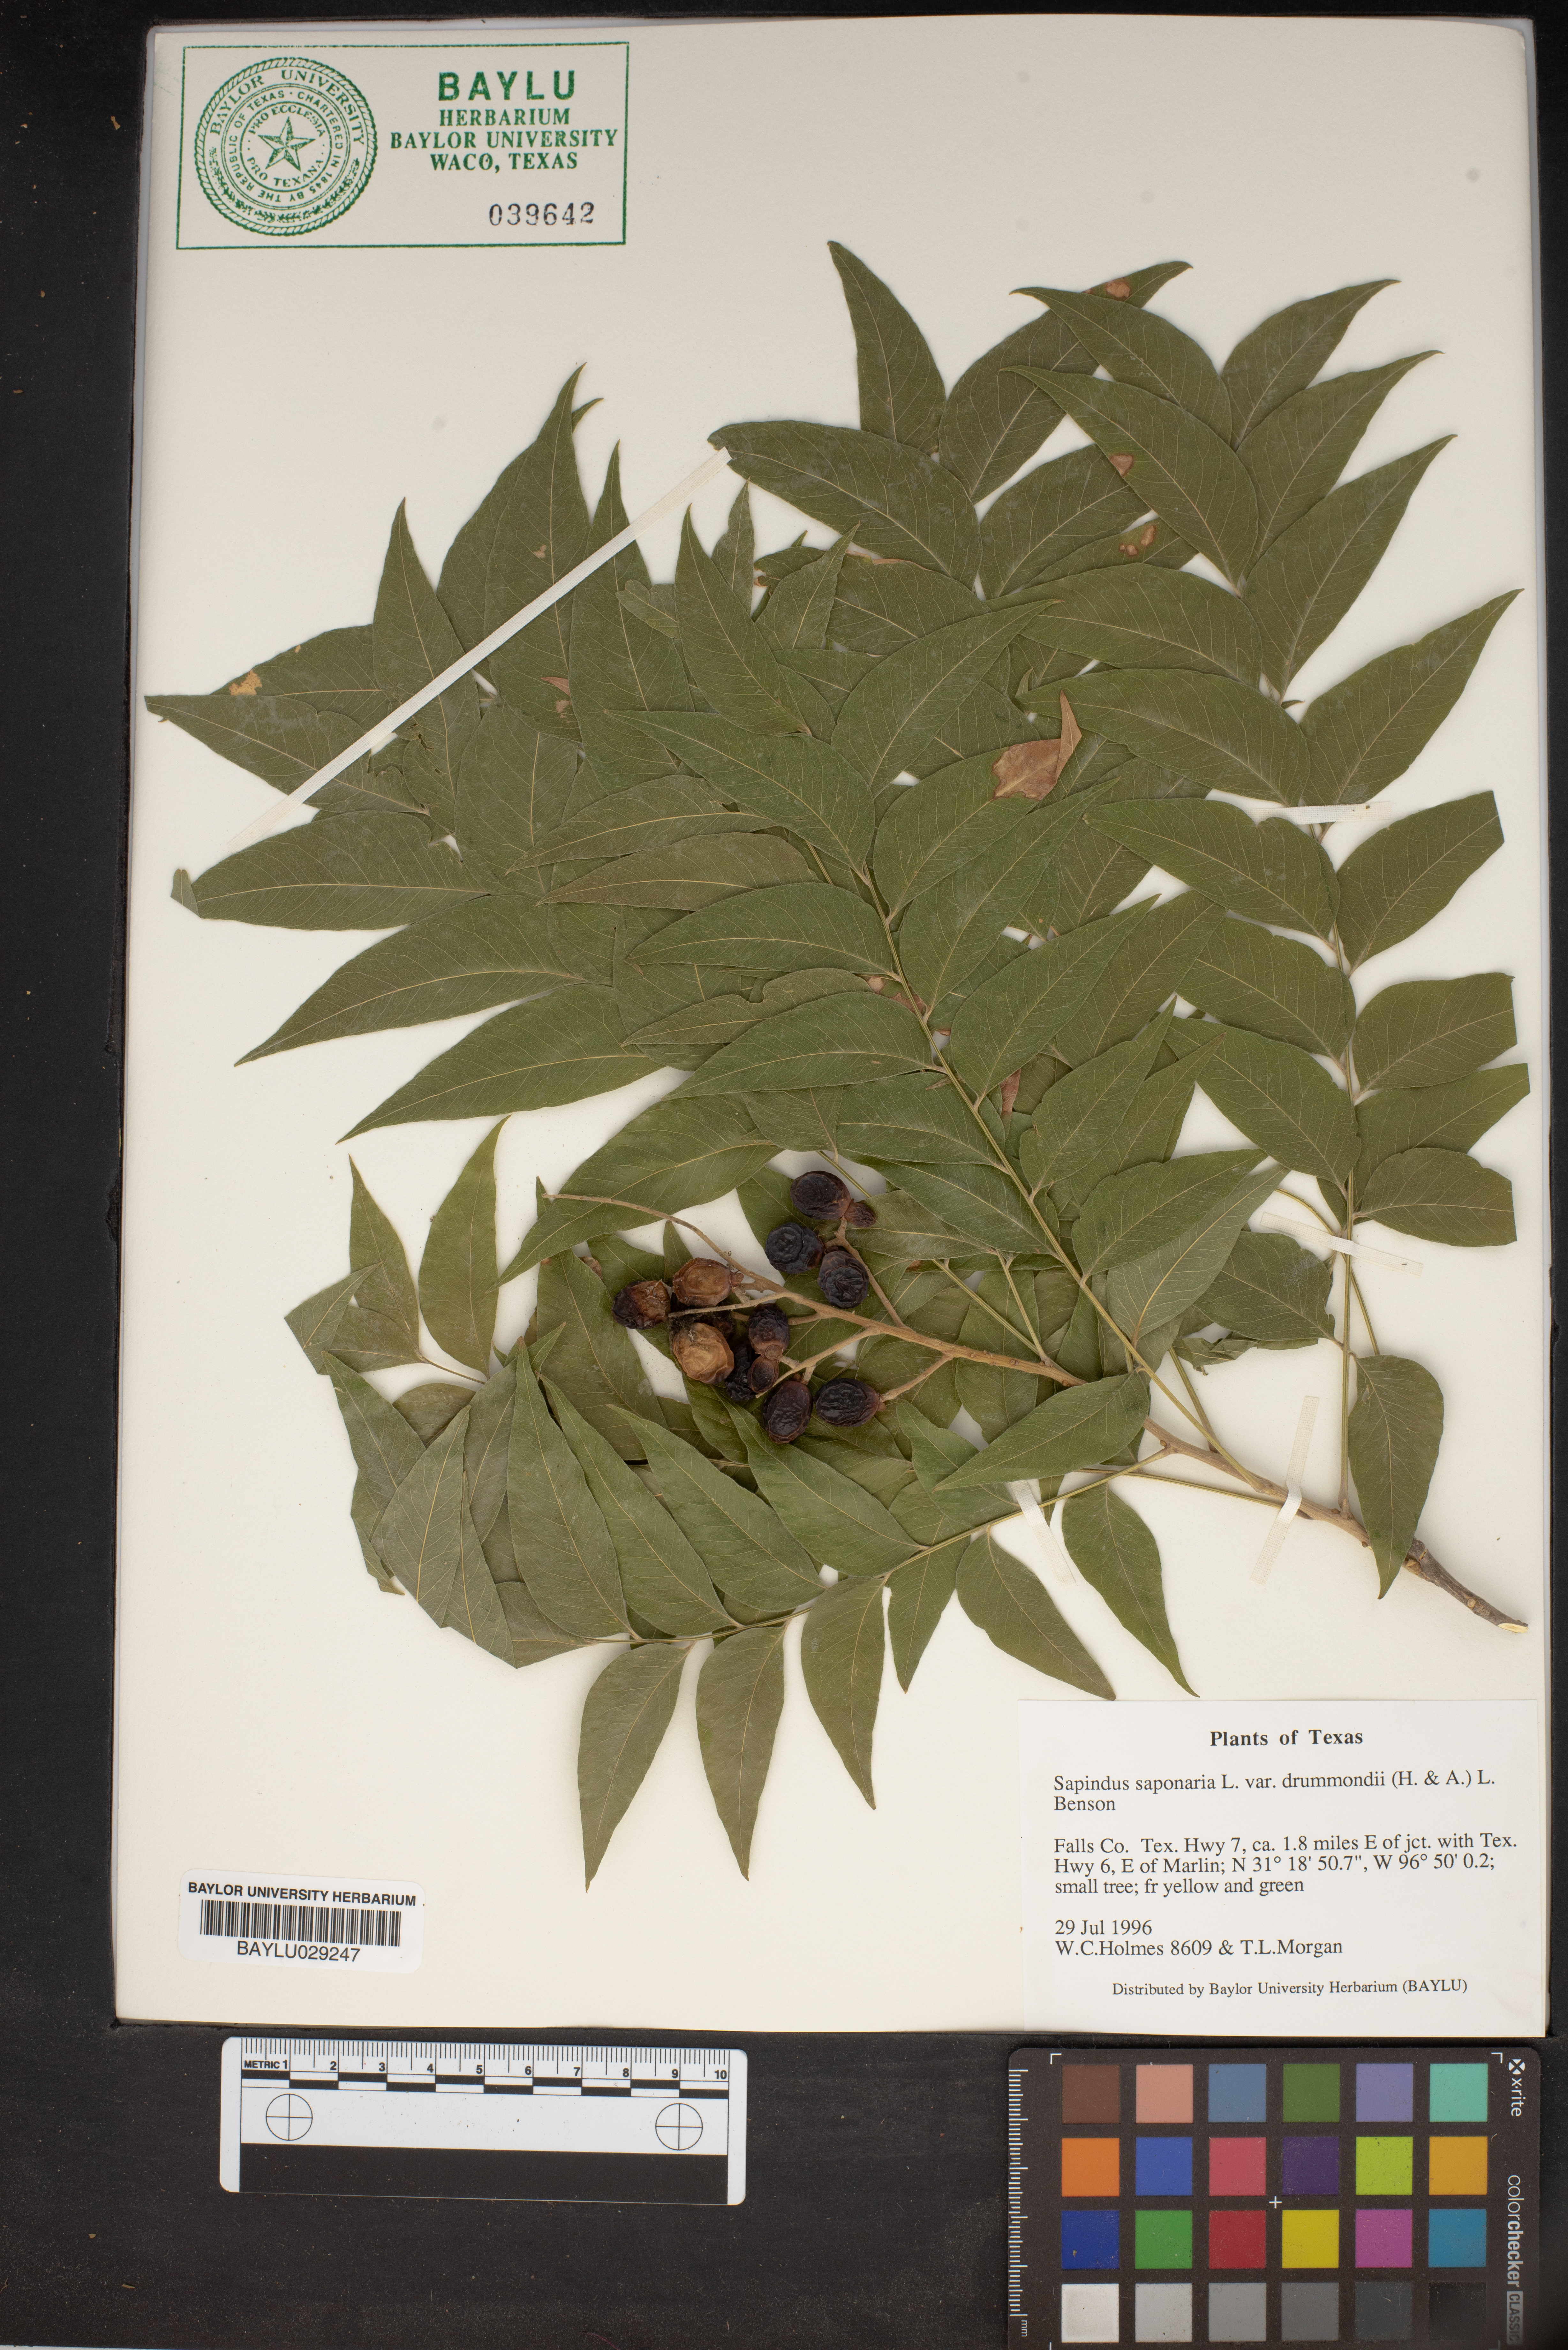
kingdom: Plantae
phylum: Tracheophyta
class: Magnoliopsida
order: Sapindales
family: Sapindaceae
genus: Sapindus
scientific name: Sapindus drummondii
